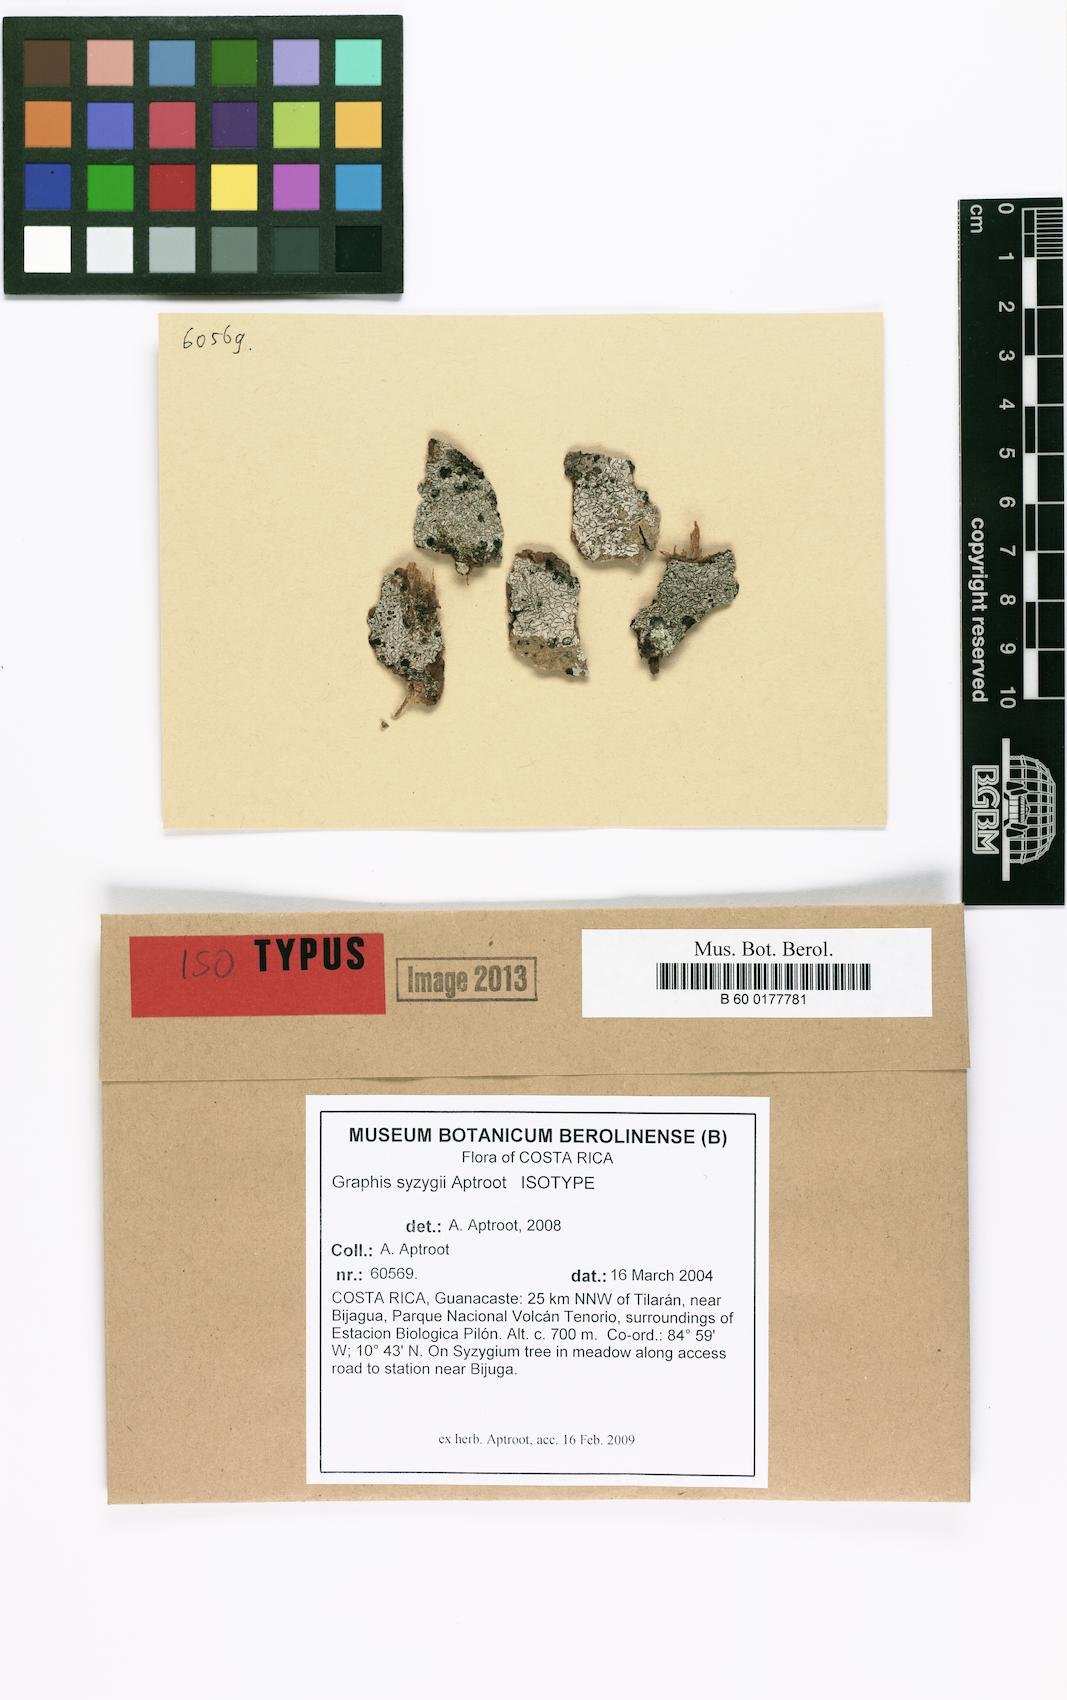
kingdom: Fungi
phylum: Ascomycota
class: Lecanoromycetes
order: Ostropales
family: Graphidaceae
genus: Graphis
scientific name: Graphis syzygii
